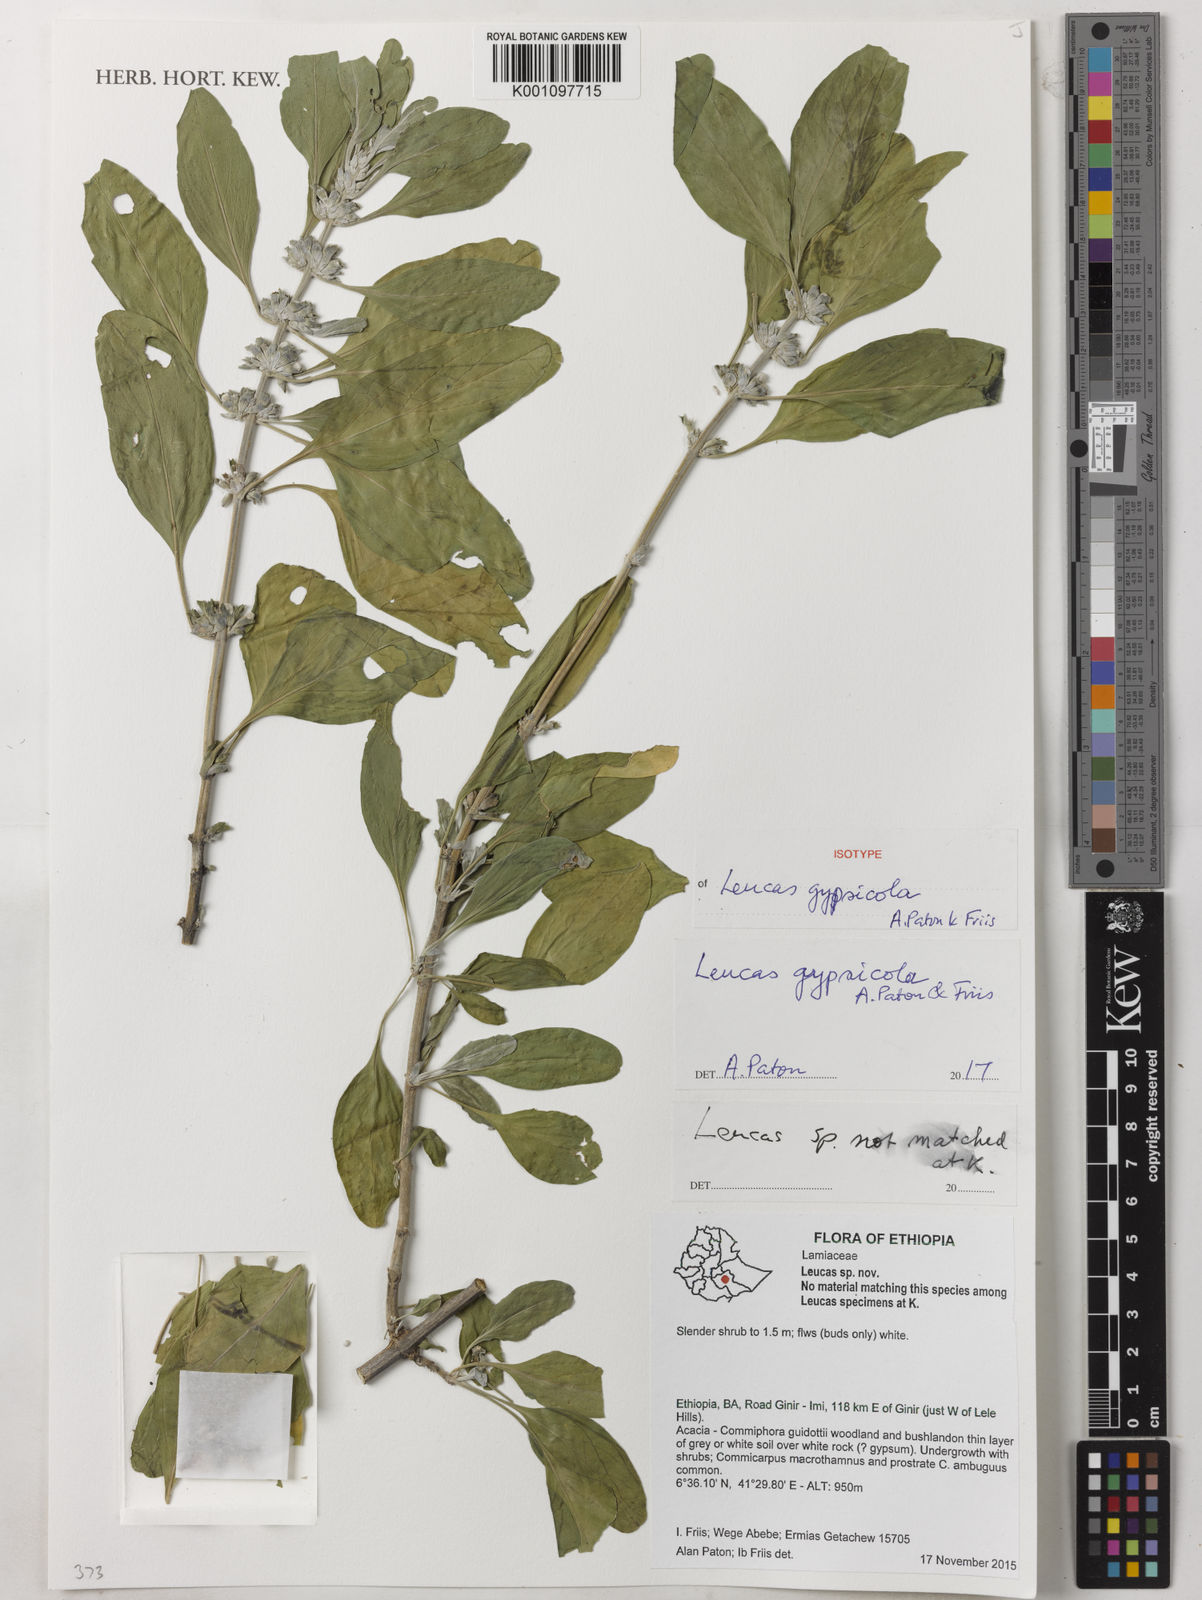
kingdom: Plantae
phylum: Tracheophyta
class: Magnoliopsida
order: Lamiales
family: Lamiaceae
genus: Leucas
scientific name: Leucas
